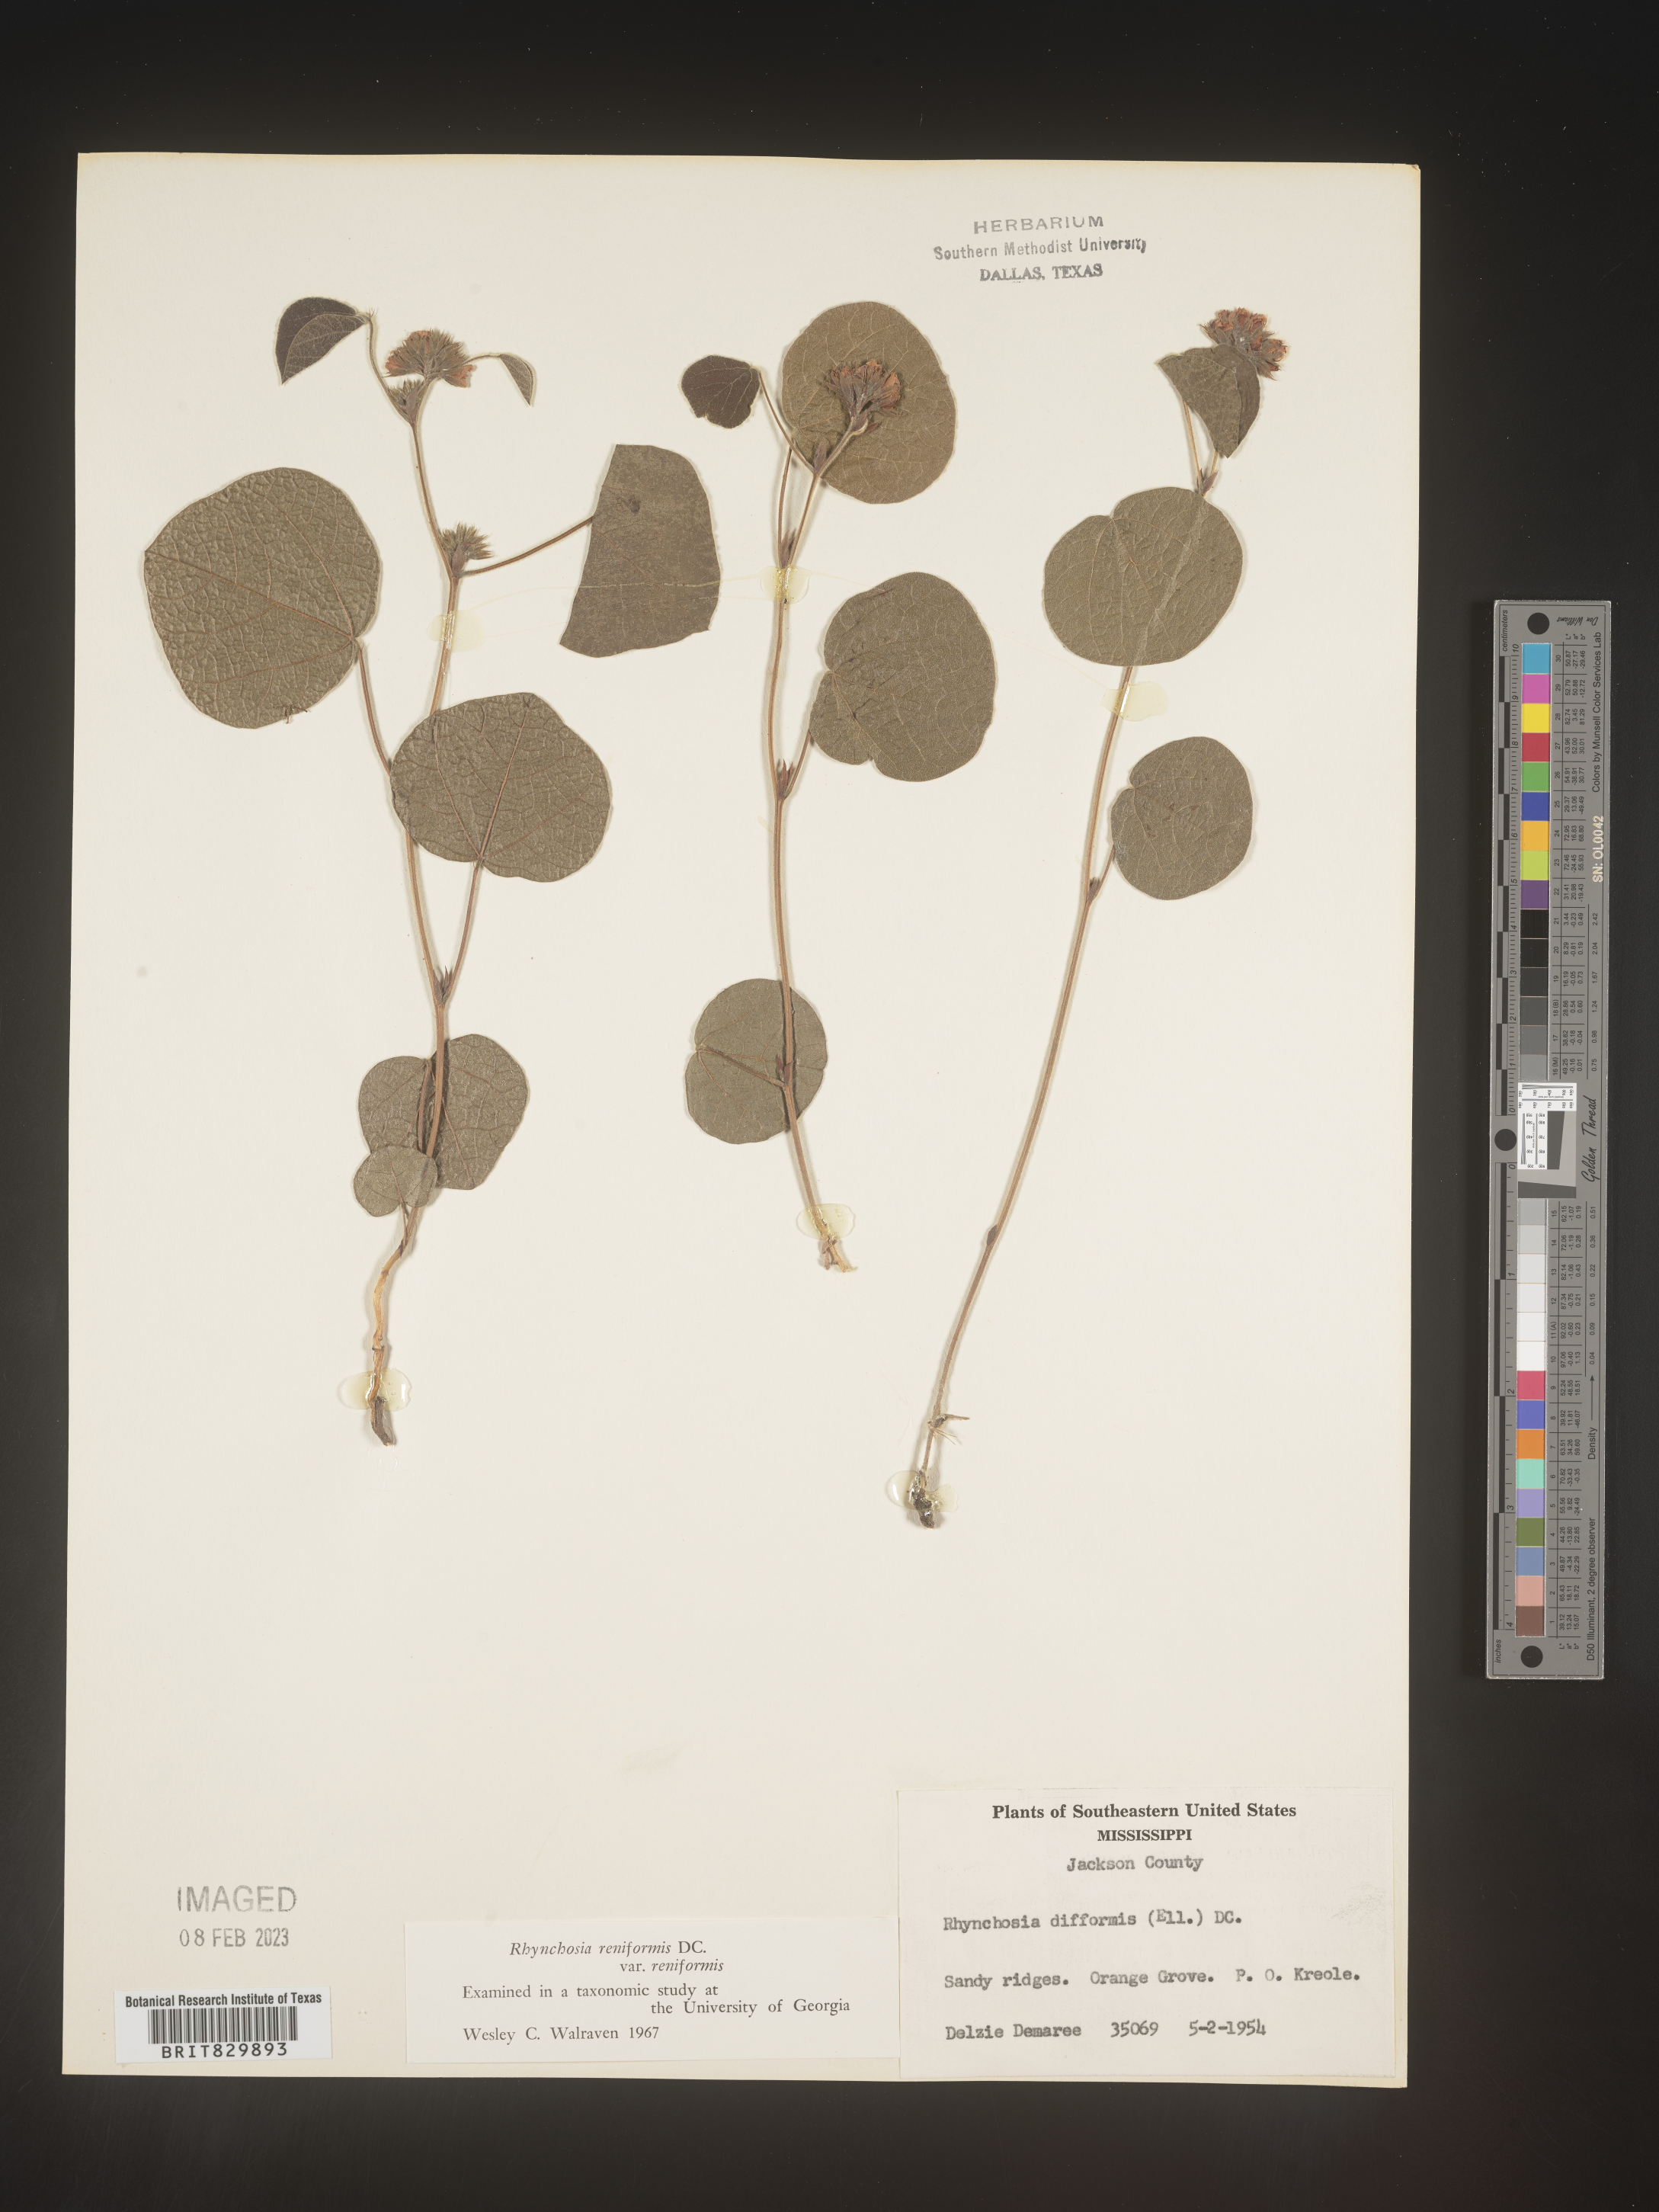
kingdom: Plantae
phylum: Tracheophyta
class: Magnoliopsida
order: Fabales
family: Fabaceae
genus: Rhynchosia
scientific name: Rhynchosia reniformis
